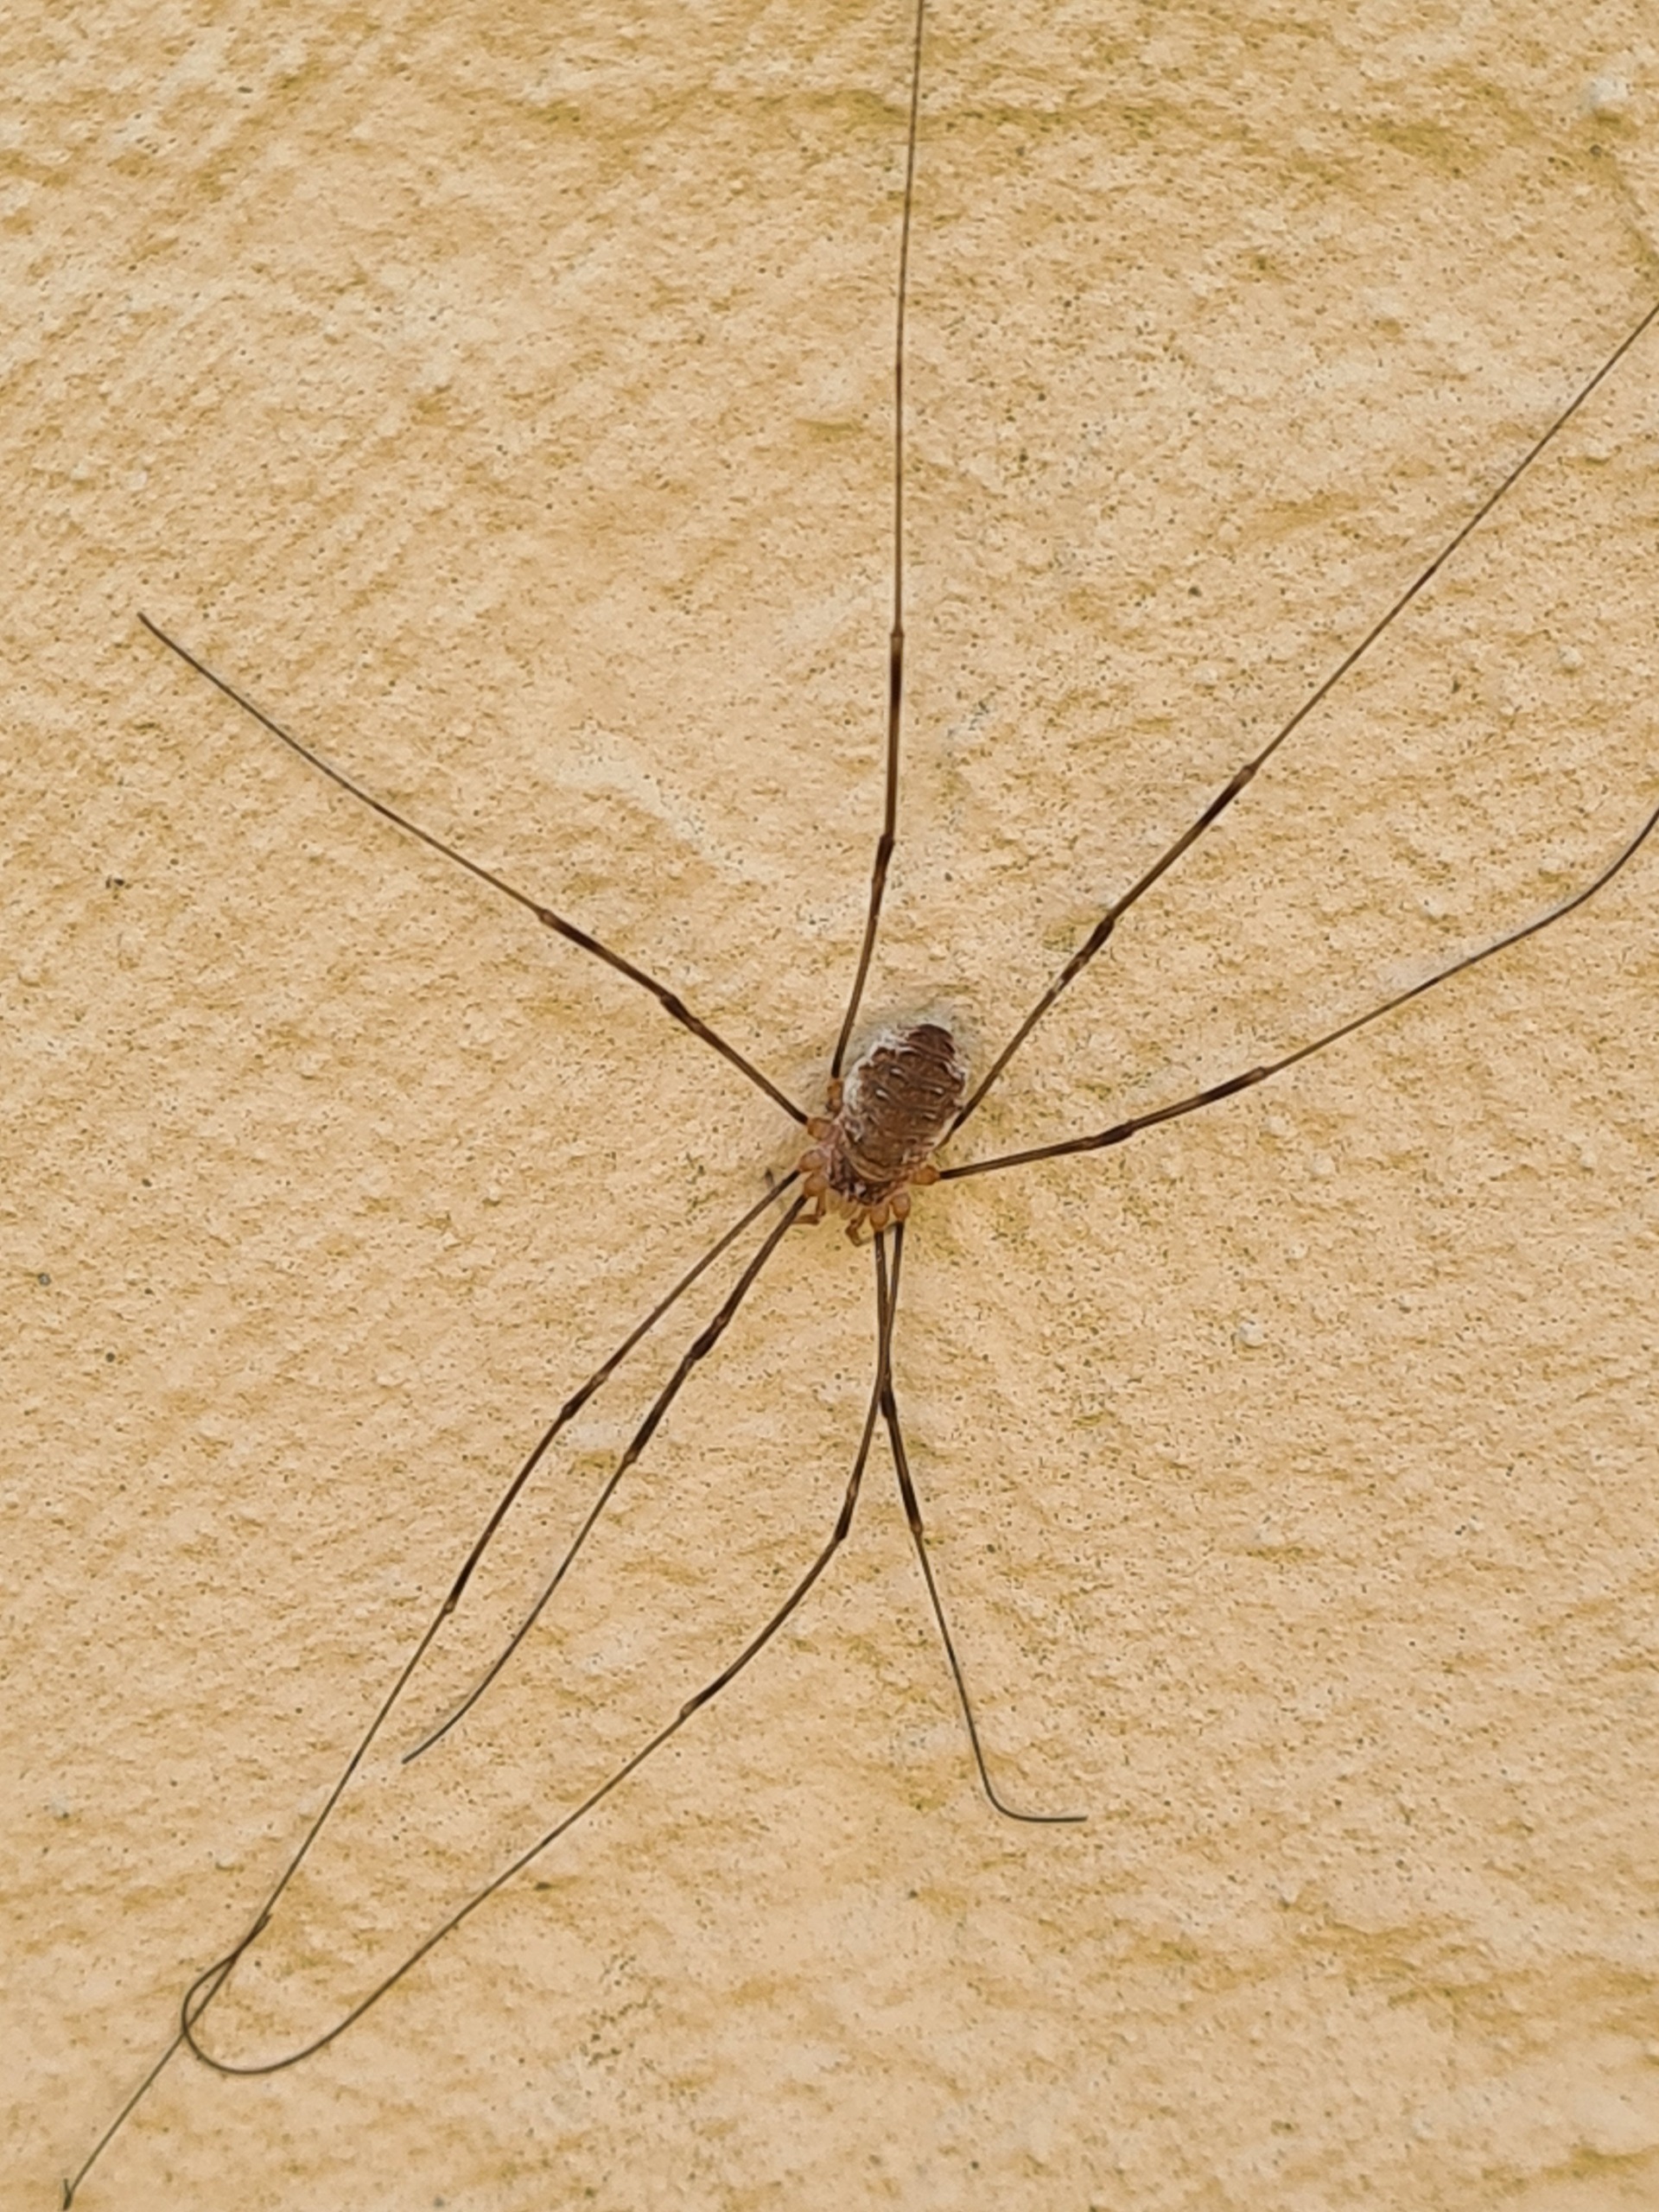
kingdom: Animalia
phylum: Arthropoda
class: Arachnida
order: Opiliones
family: Phalangiidae
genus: Opilio
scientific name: Opilio canestrinii
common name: Orange vægmejer
